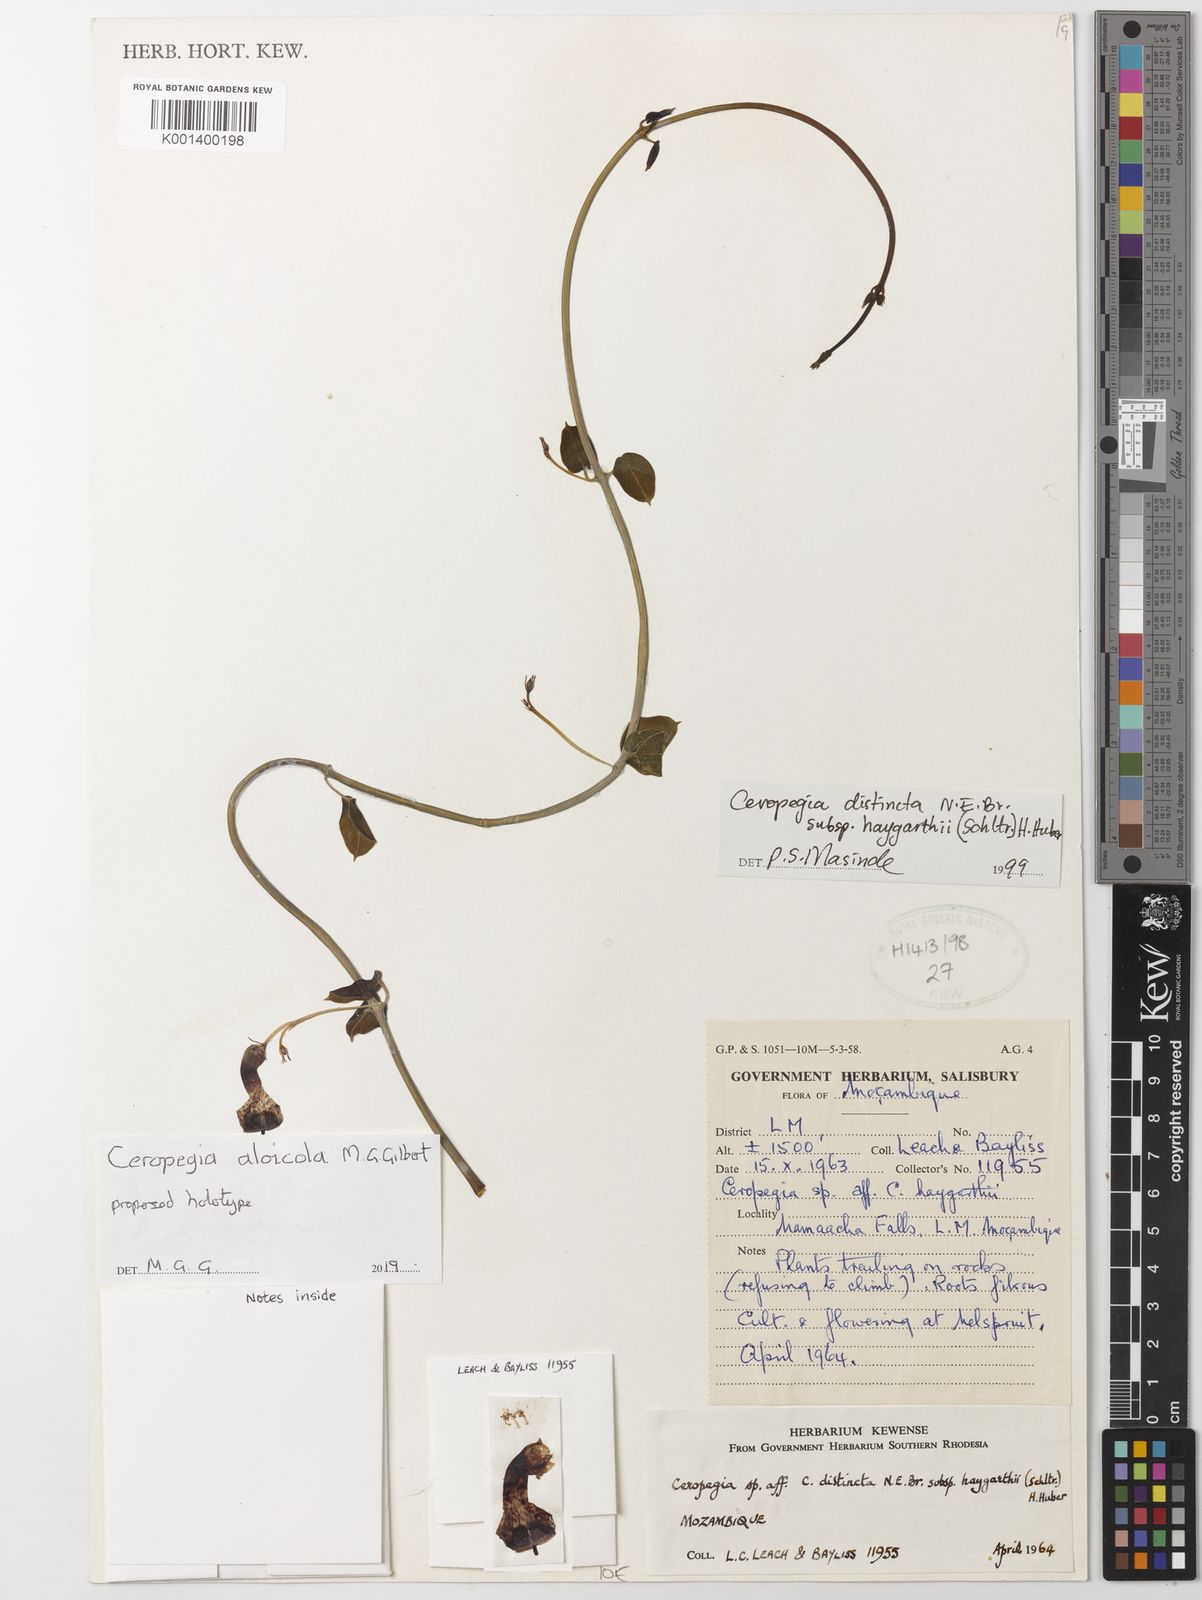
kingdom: Plantae
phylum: Tracheophyta
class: Magnoliopsida
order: Gentianales
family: Apocynaceae
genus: Ceropegia
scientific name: Ceropegia
